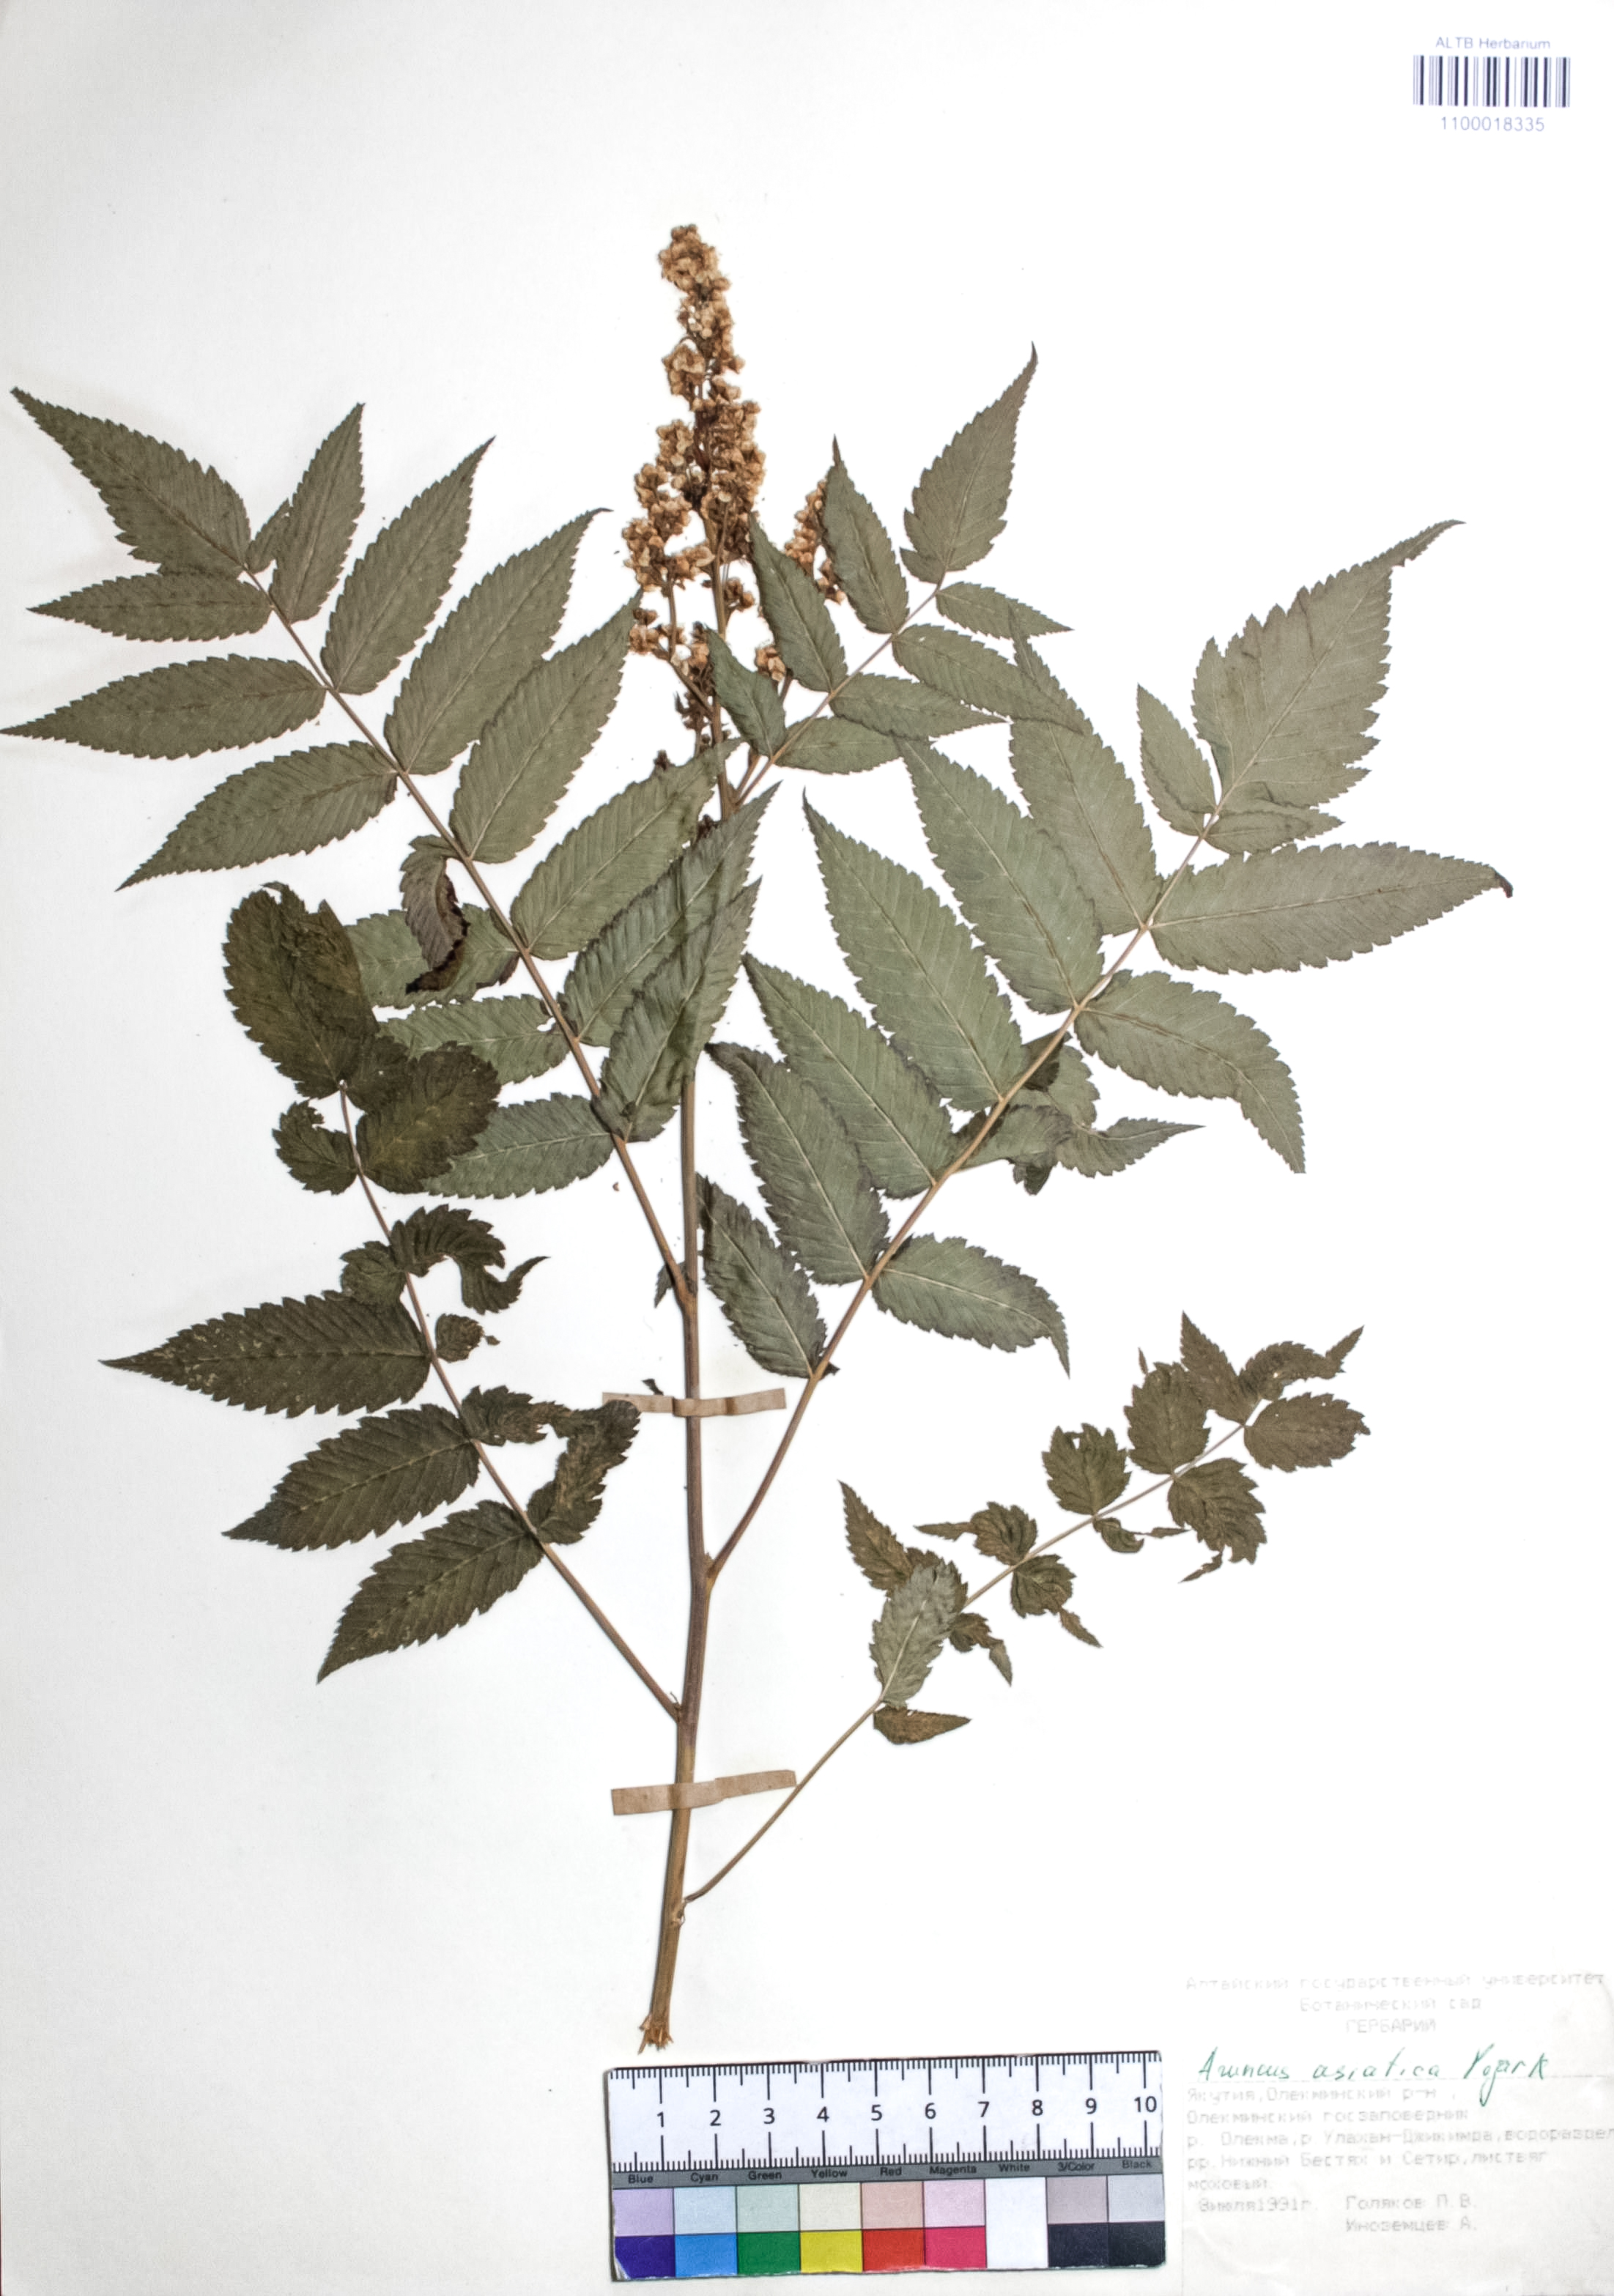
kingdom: Plantae
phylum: Tracheophyta
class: Magnoliopsida
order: Rosales
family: Rosaceae
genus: Aruncus
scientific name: Aruncus sylvester
